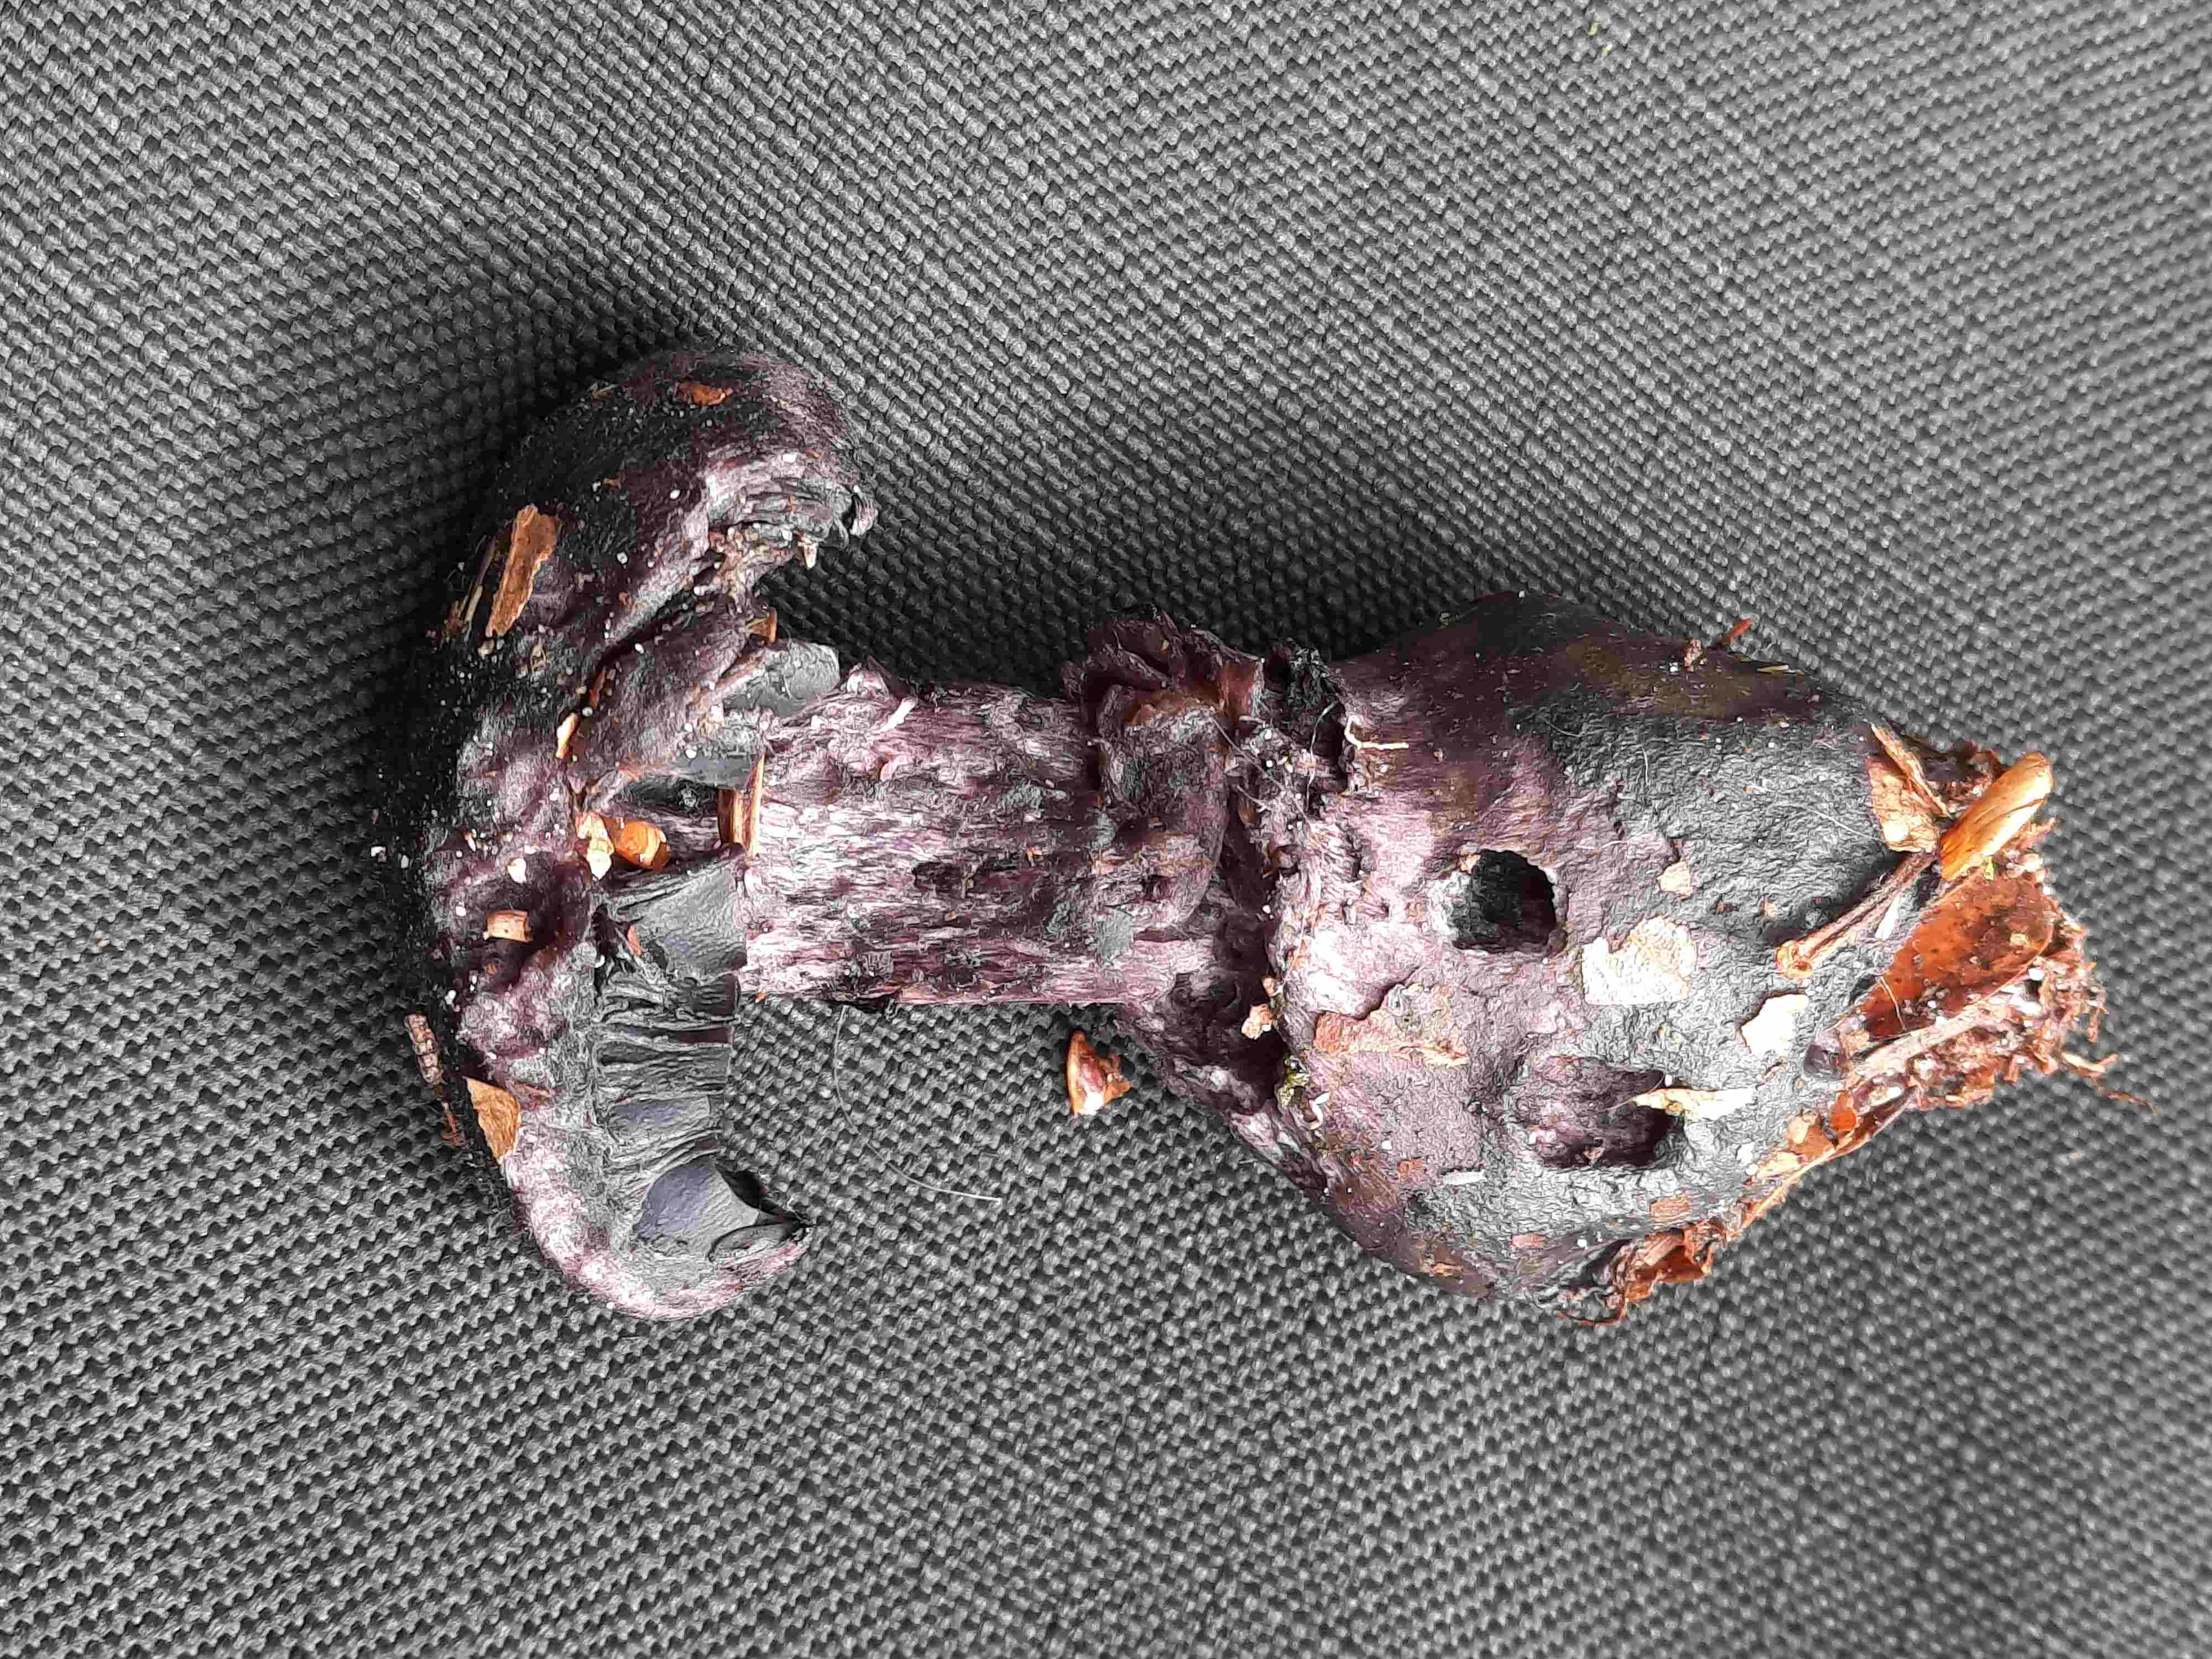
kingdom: Fungi
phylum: Basidiomycota
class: Agaricomycetes
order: Agaricales
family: Cortinariaceae
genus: Cortinarius
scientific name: Cortinarius violaceus
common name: mørkviolet slørhat
